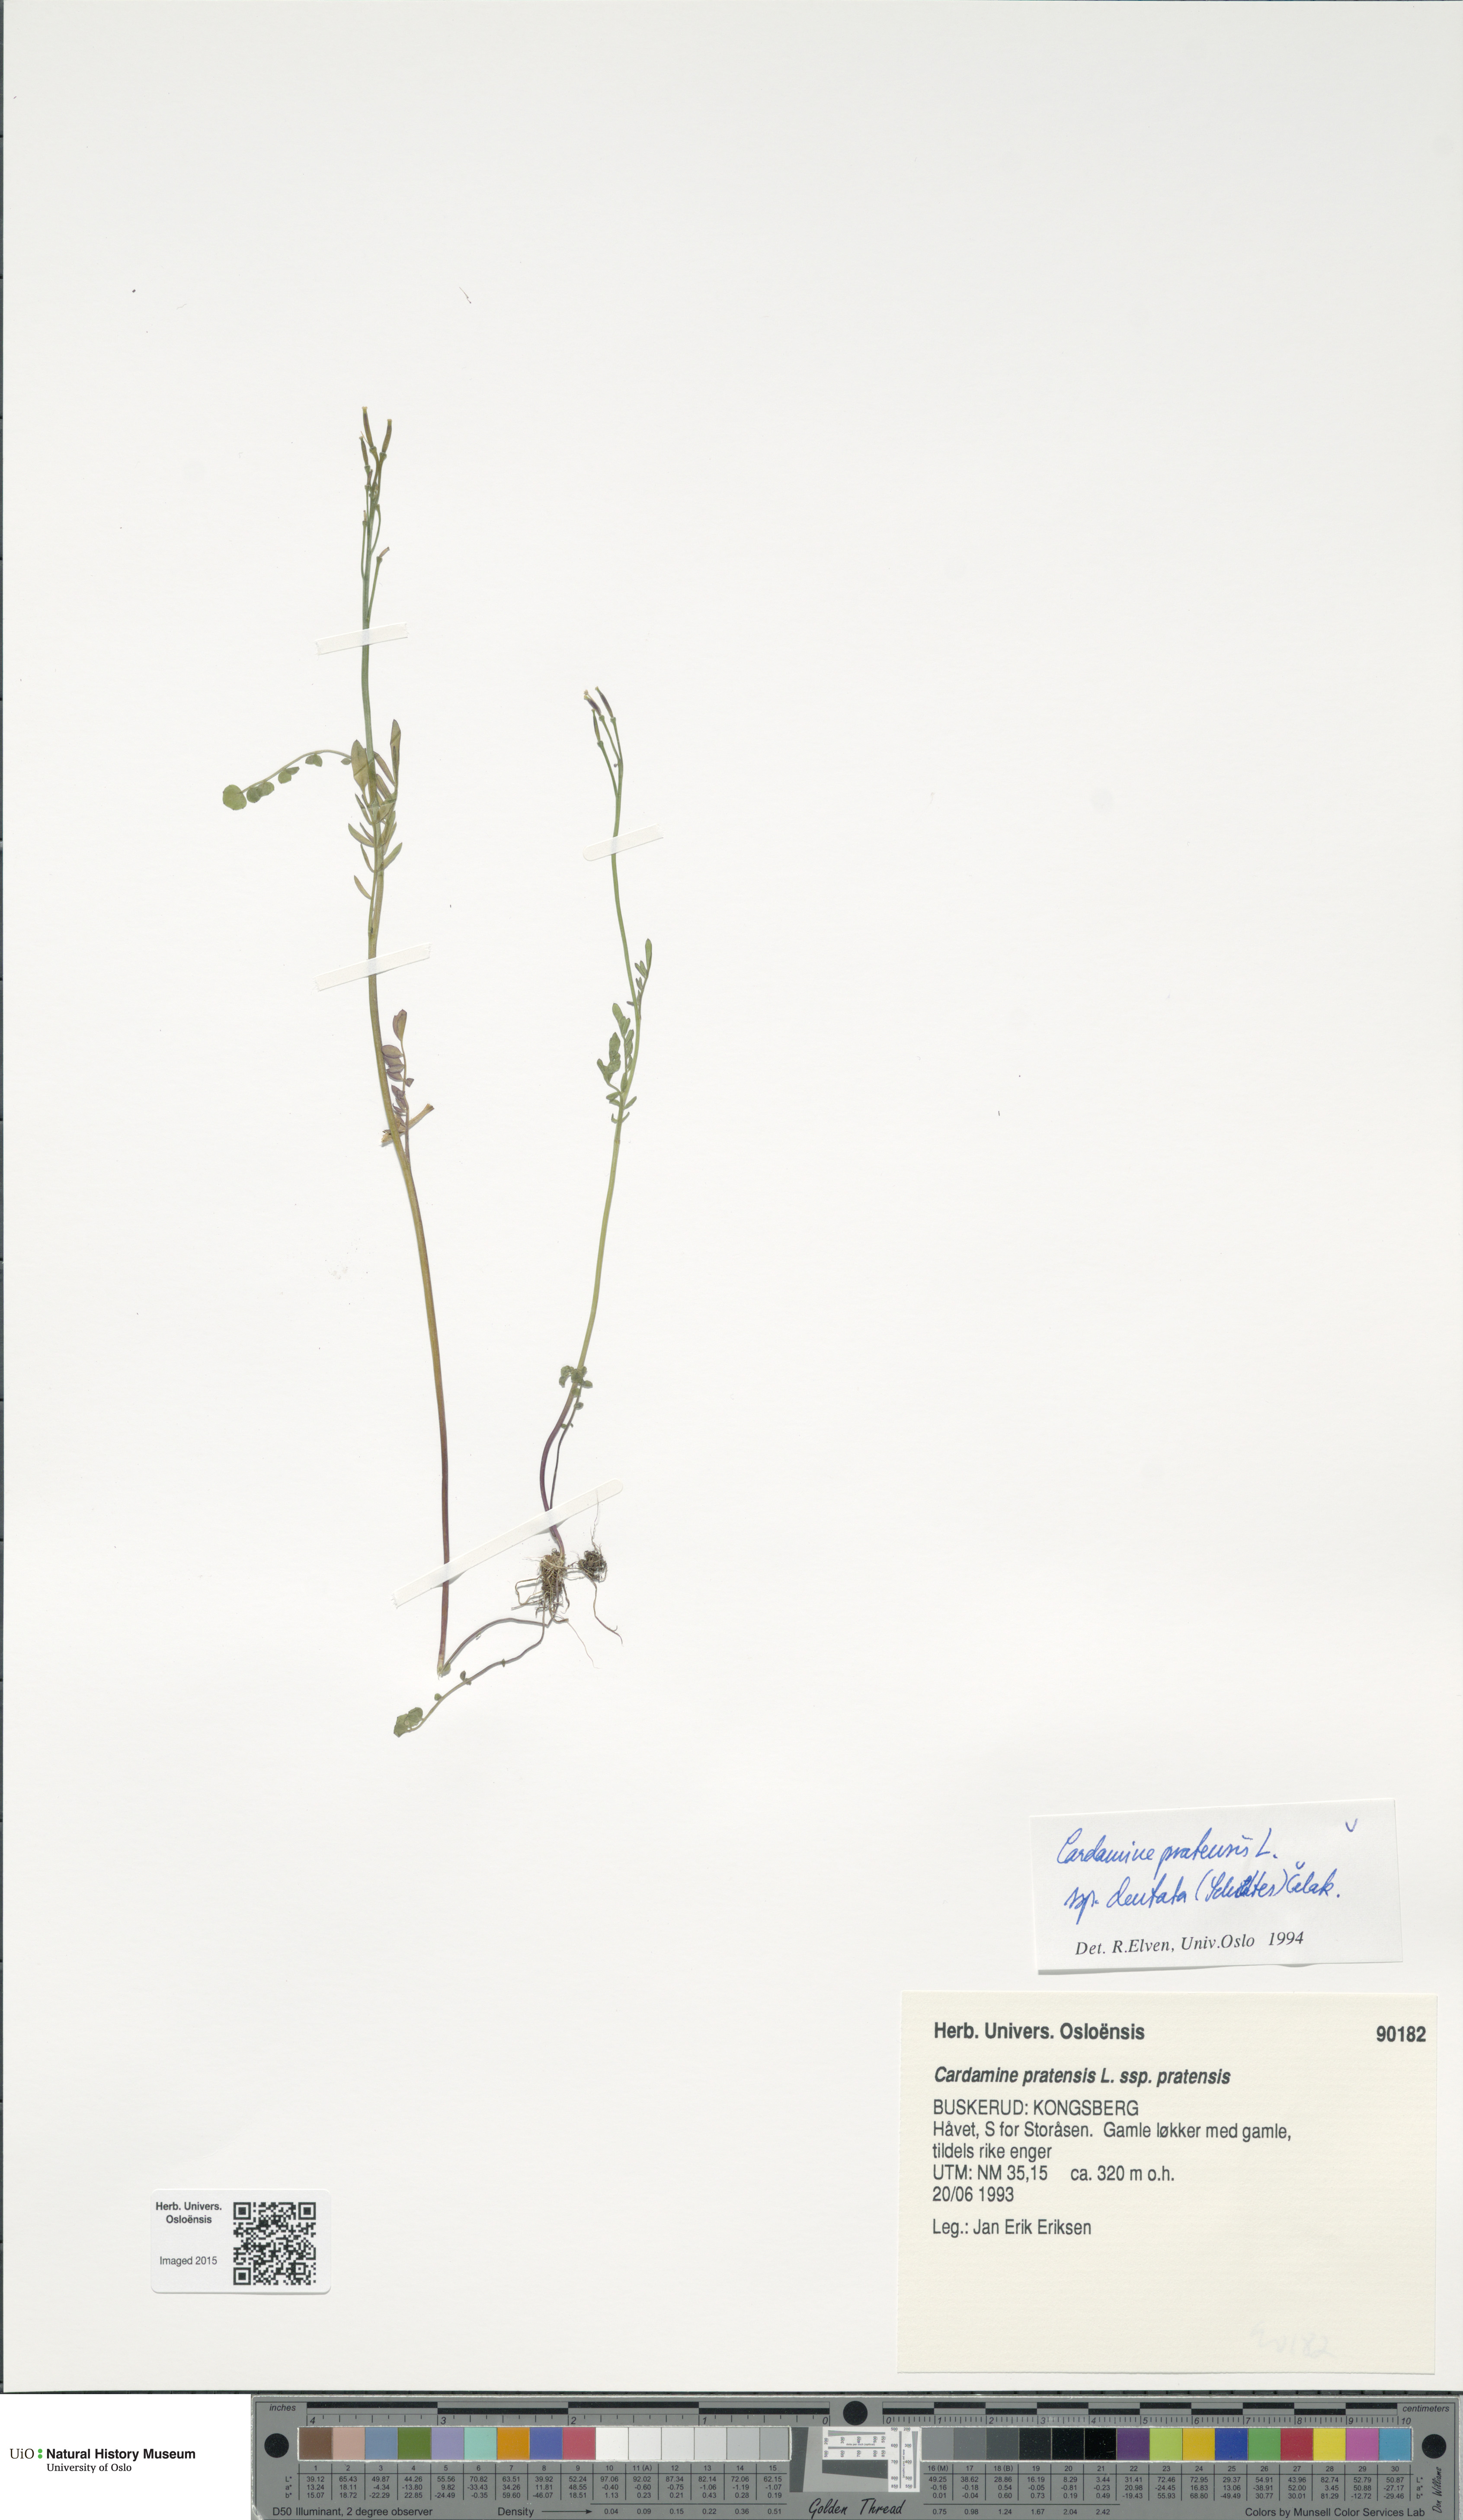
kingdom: Plantae
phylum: Tracheophyta
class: Magnoliopsida
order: Brassicales
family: Brassicaceae
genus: Cardamine
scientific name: Cardamine dentata
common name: Toothed bittercress
